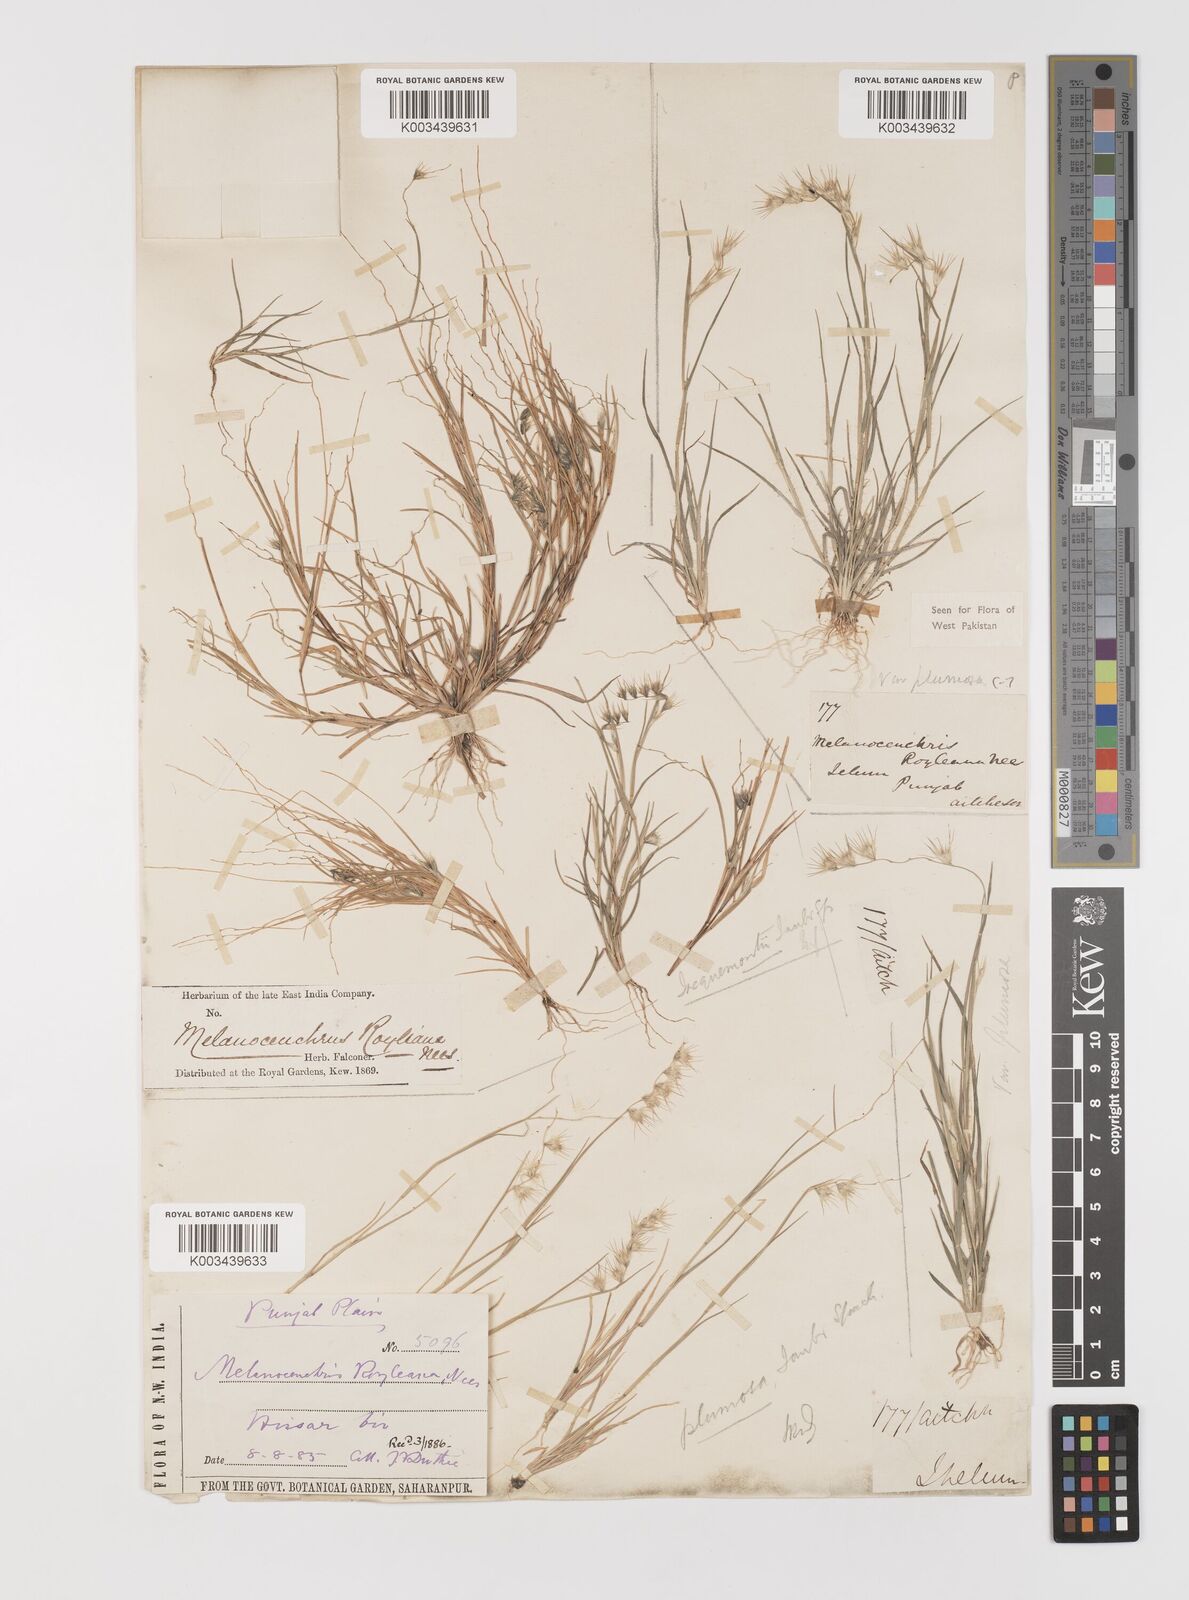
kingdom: Plantae
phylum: Tracheophyta
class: Liliopsida
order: Poales
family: Poaceae
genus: Melanocenchris
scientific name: Melanocenchris abyssinica
